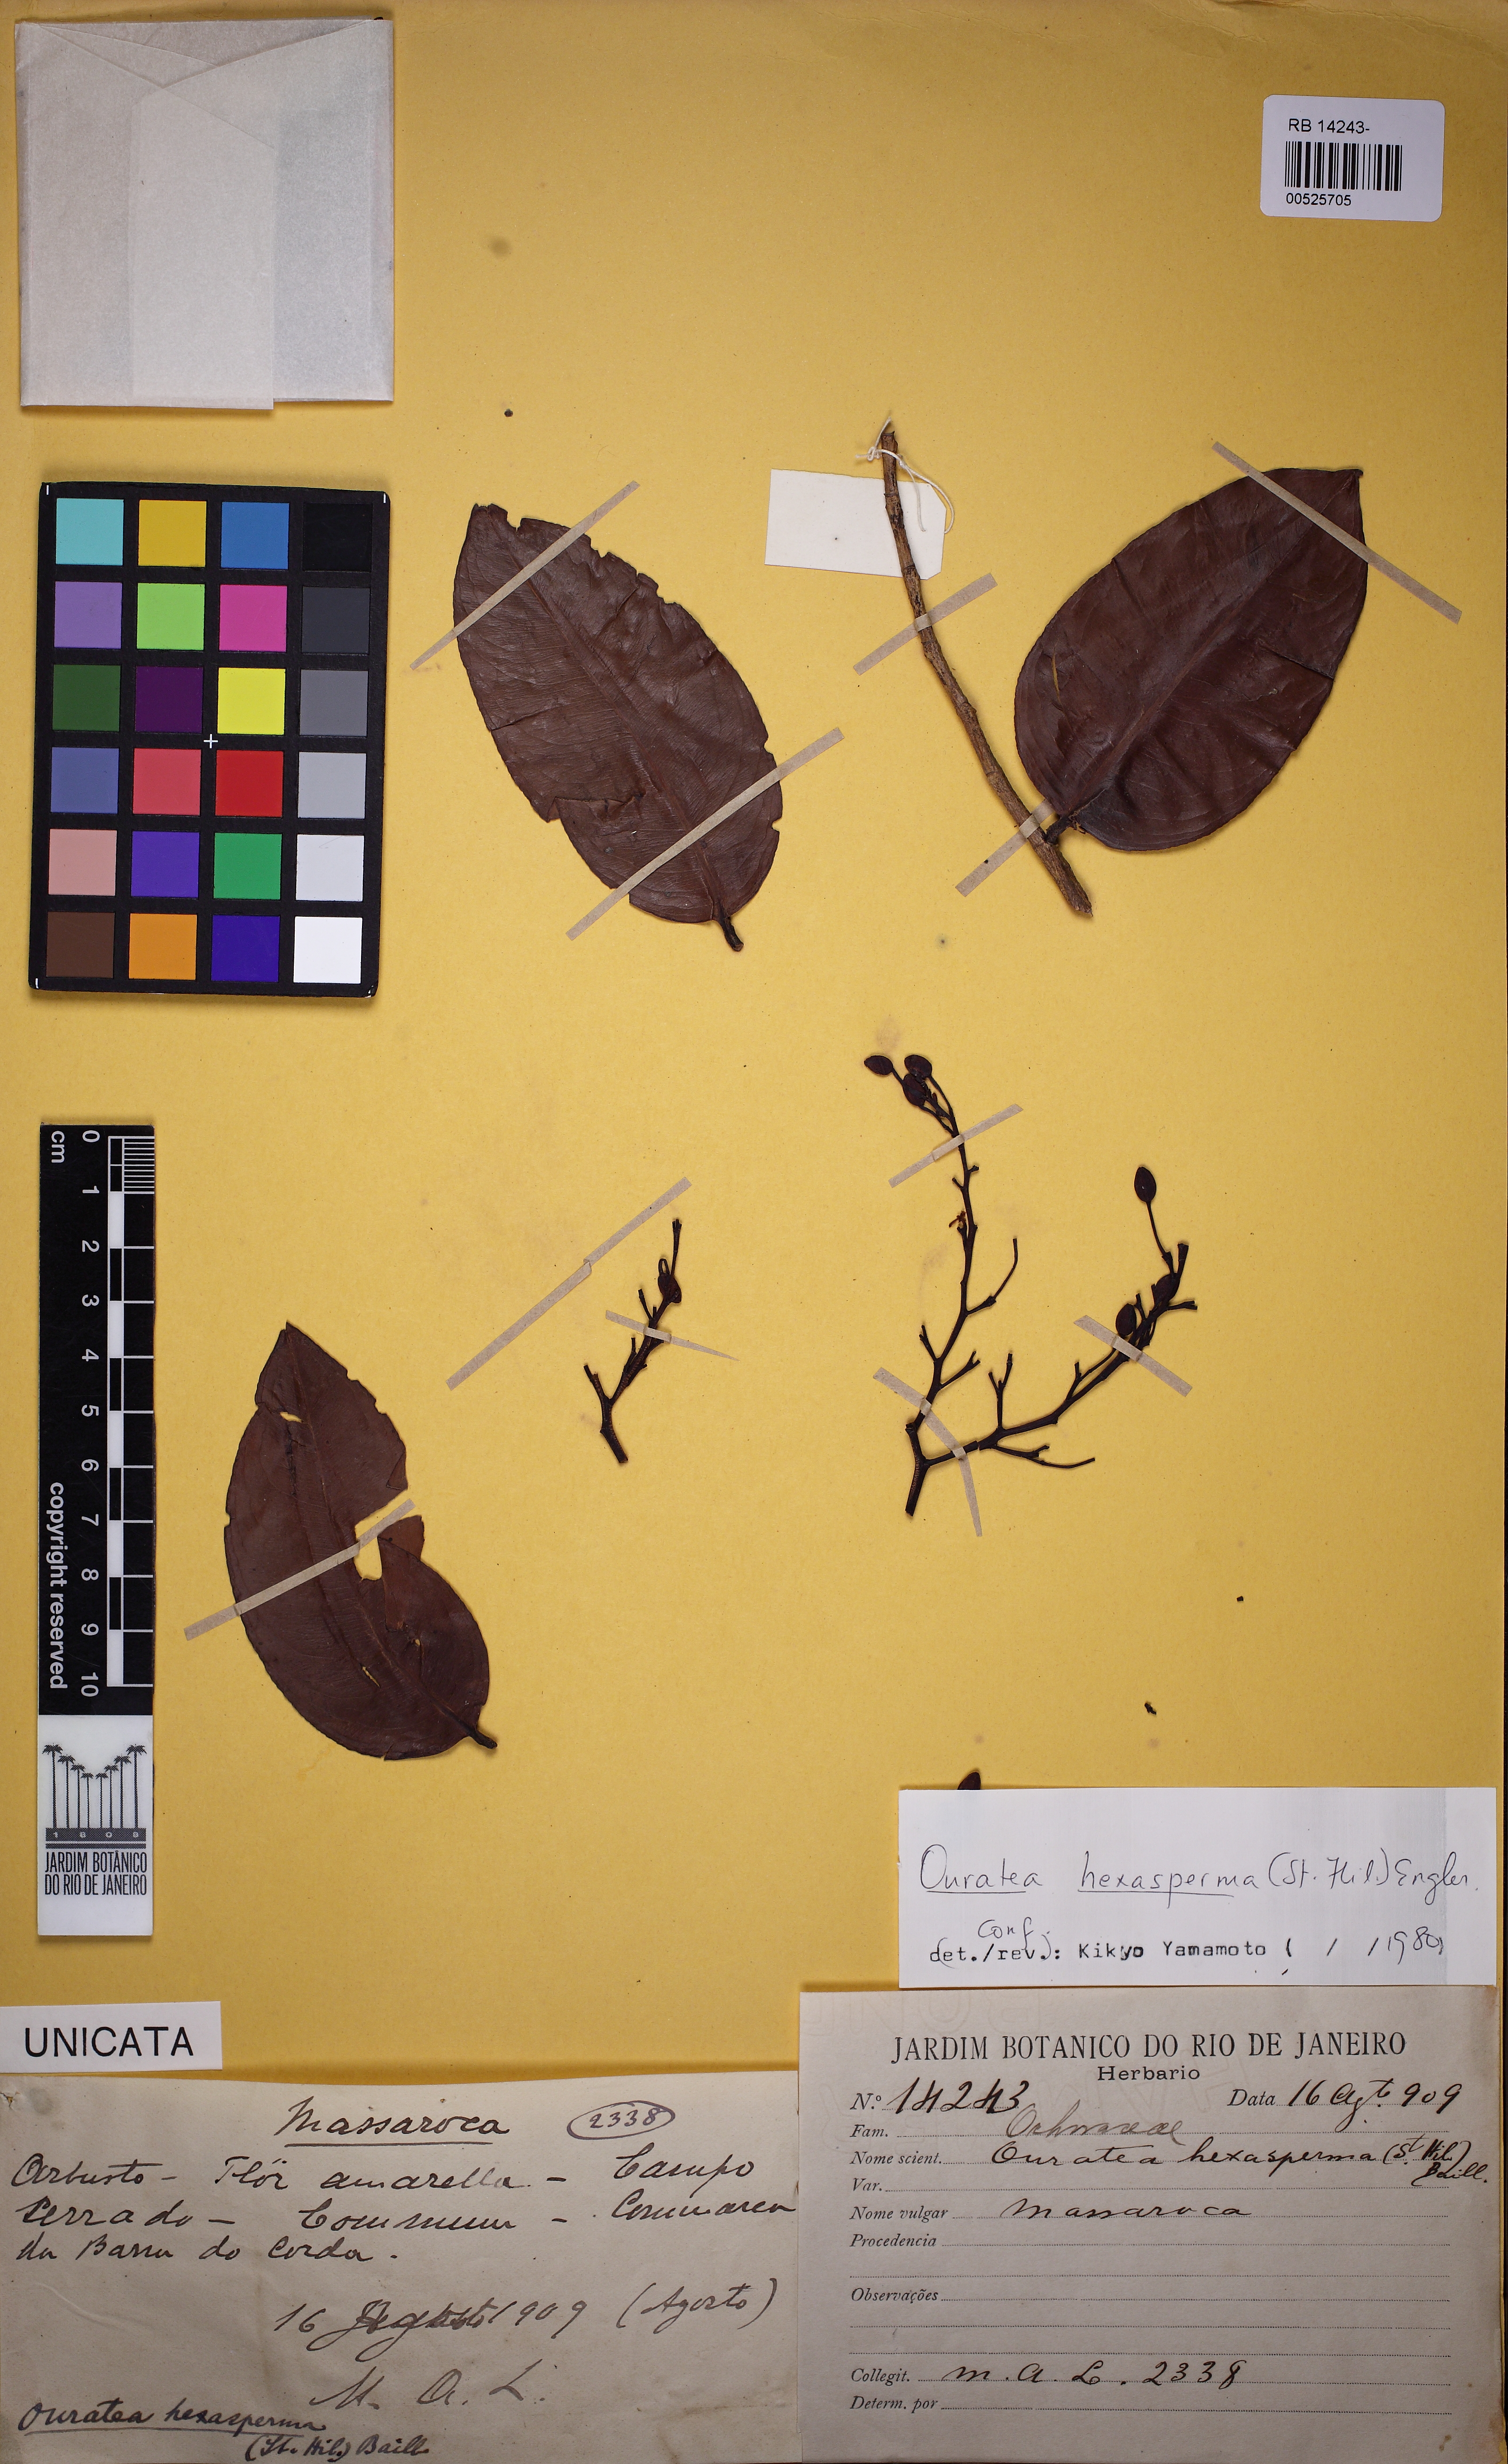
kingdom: Plantae
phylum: Tracheophyta
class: Magnoliopsida
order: Malpighiales
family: Ochnaceae
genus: Ouratea
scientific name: Ouratea hexasperma
